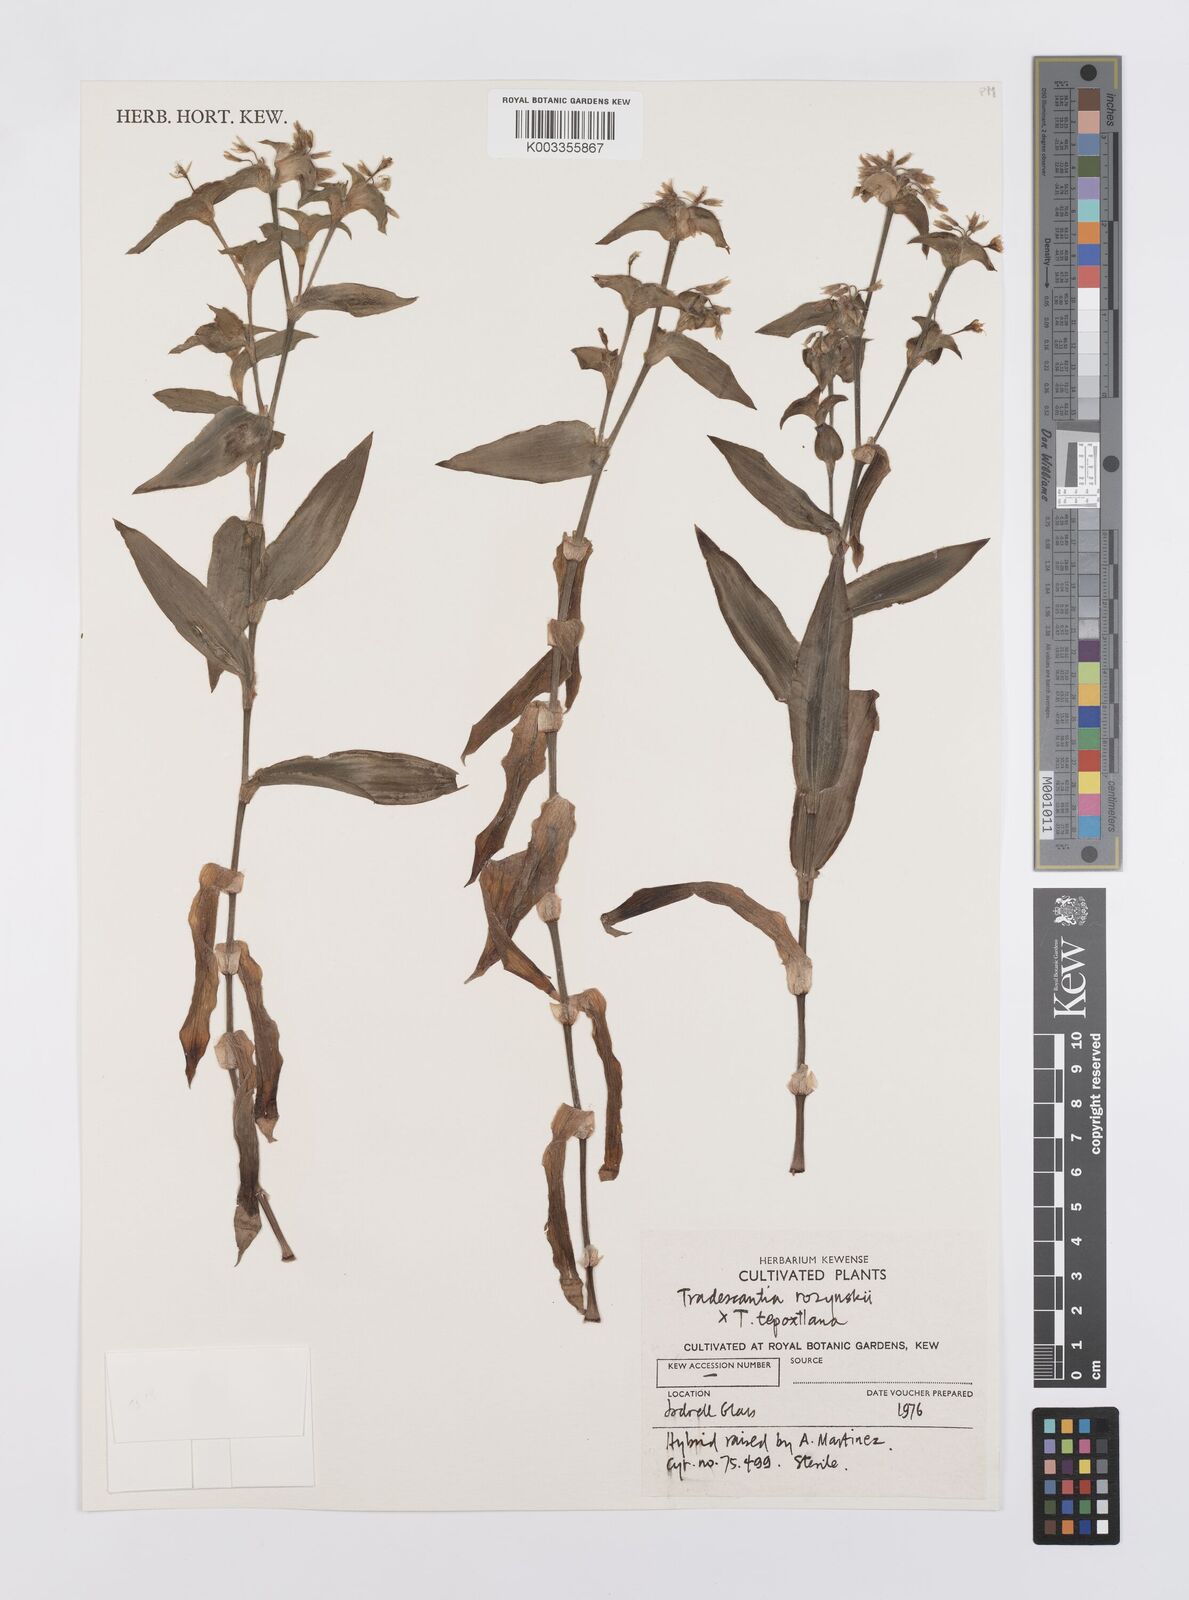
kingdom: Plantae
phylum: Tracheophyta
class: Liliopsida
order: Commelinales
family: Commelinaceae
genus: Tradescantia
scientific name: Tradescantia rozynskii
